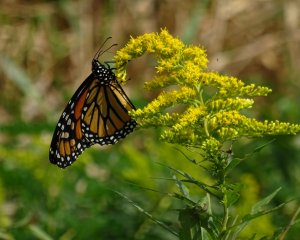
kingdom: Animalia
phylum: Arthropoda
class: Insecta
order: Lepidoptera
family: Nymphalidae
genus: Danaus
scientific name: Danaus plexippus
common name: Monarch
